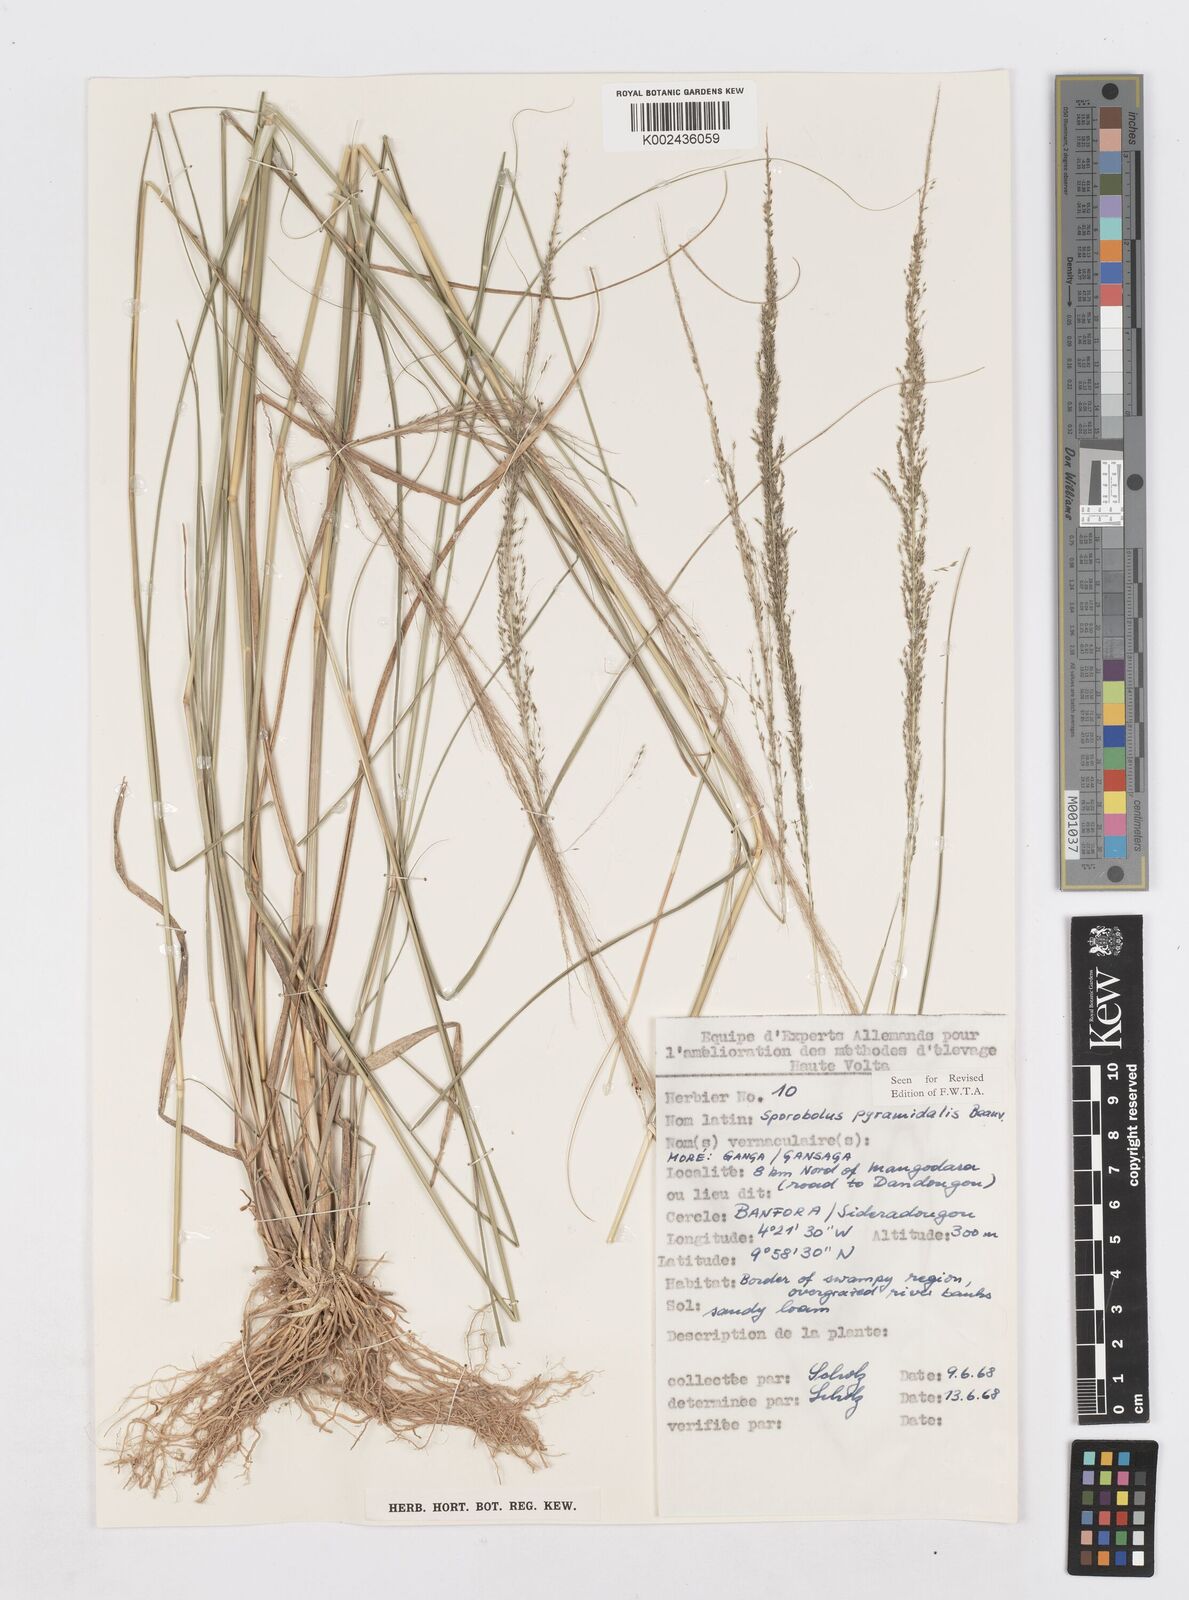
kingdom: Plantae
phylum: Tracheophyta
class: Liliopsida
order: Poales
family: Poaceae
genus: Sporobolus
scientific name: Sporobolus pyramidalis
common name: West indian dropseed
